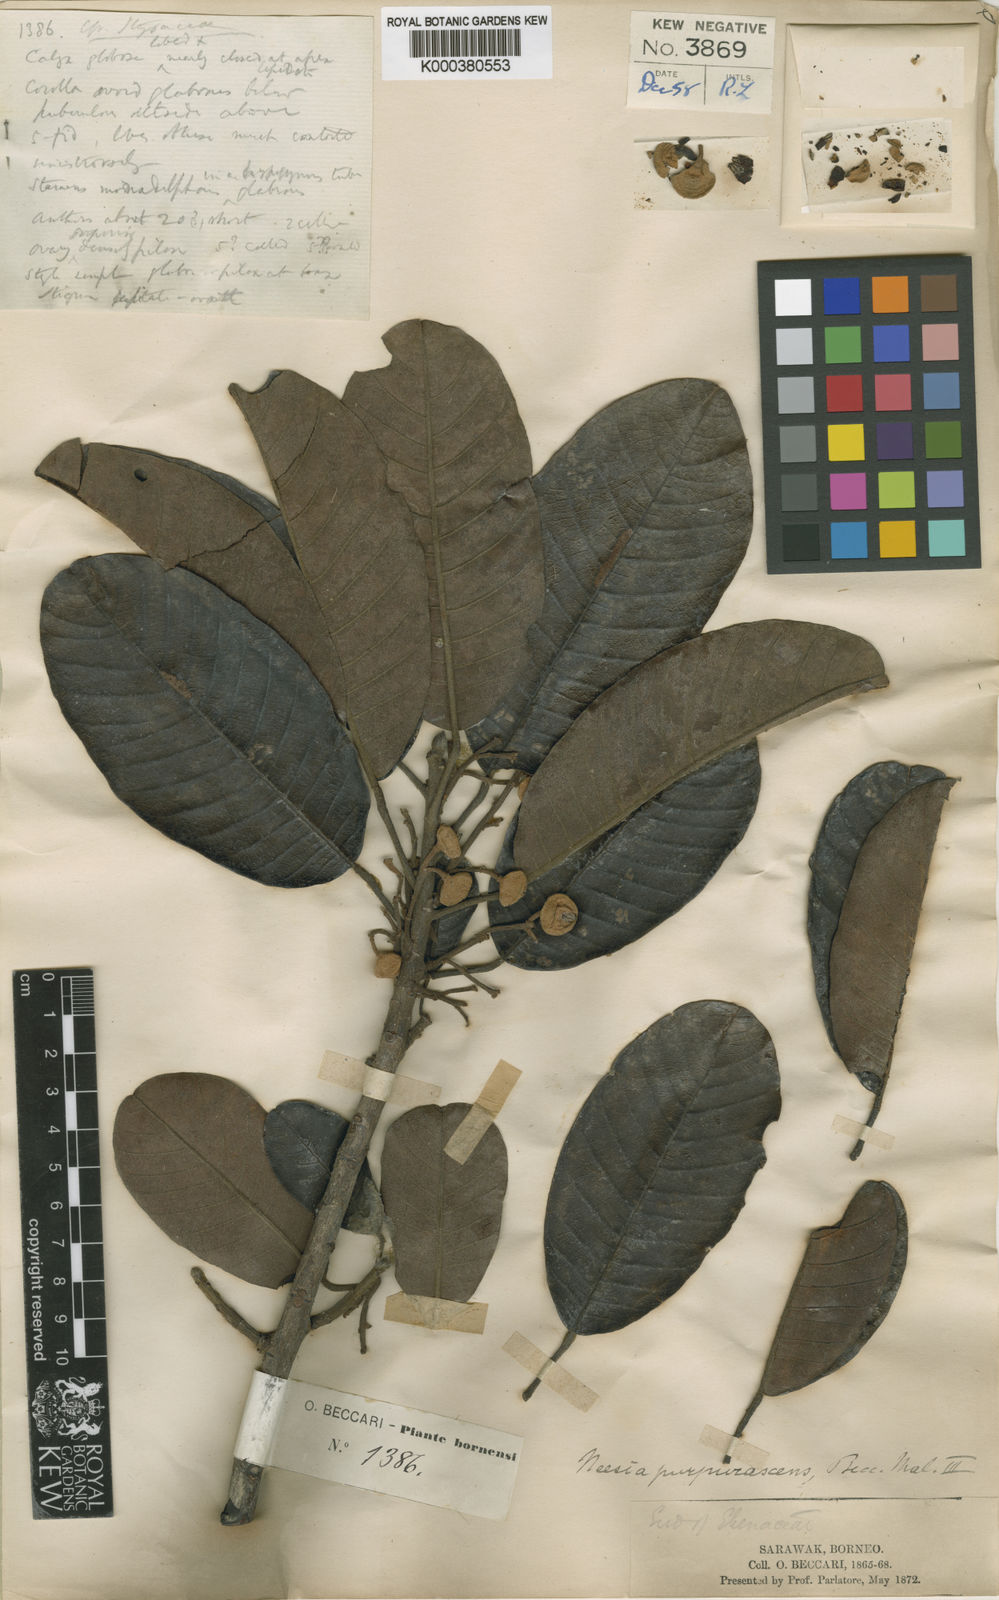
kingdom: Plantae
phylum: Tracheophyta
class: Magnoliopsida
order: Malvales
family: Malvaceae
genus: Neesia
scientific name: Neesia purpurascens
